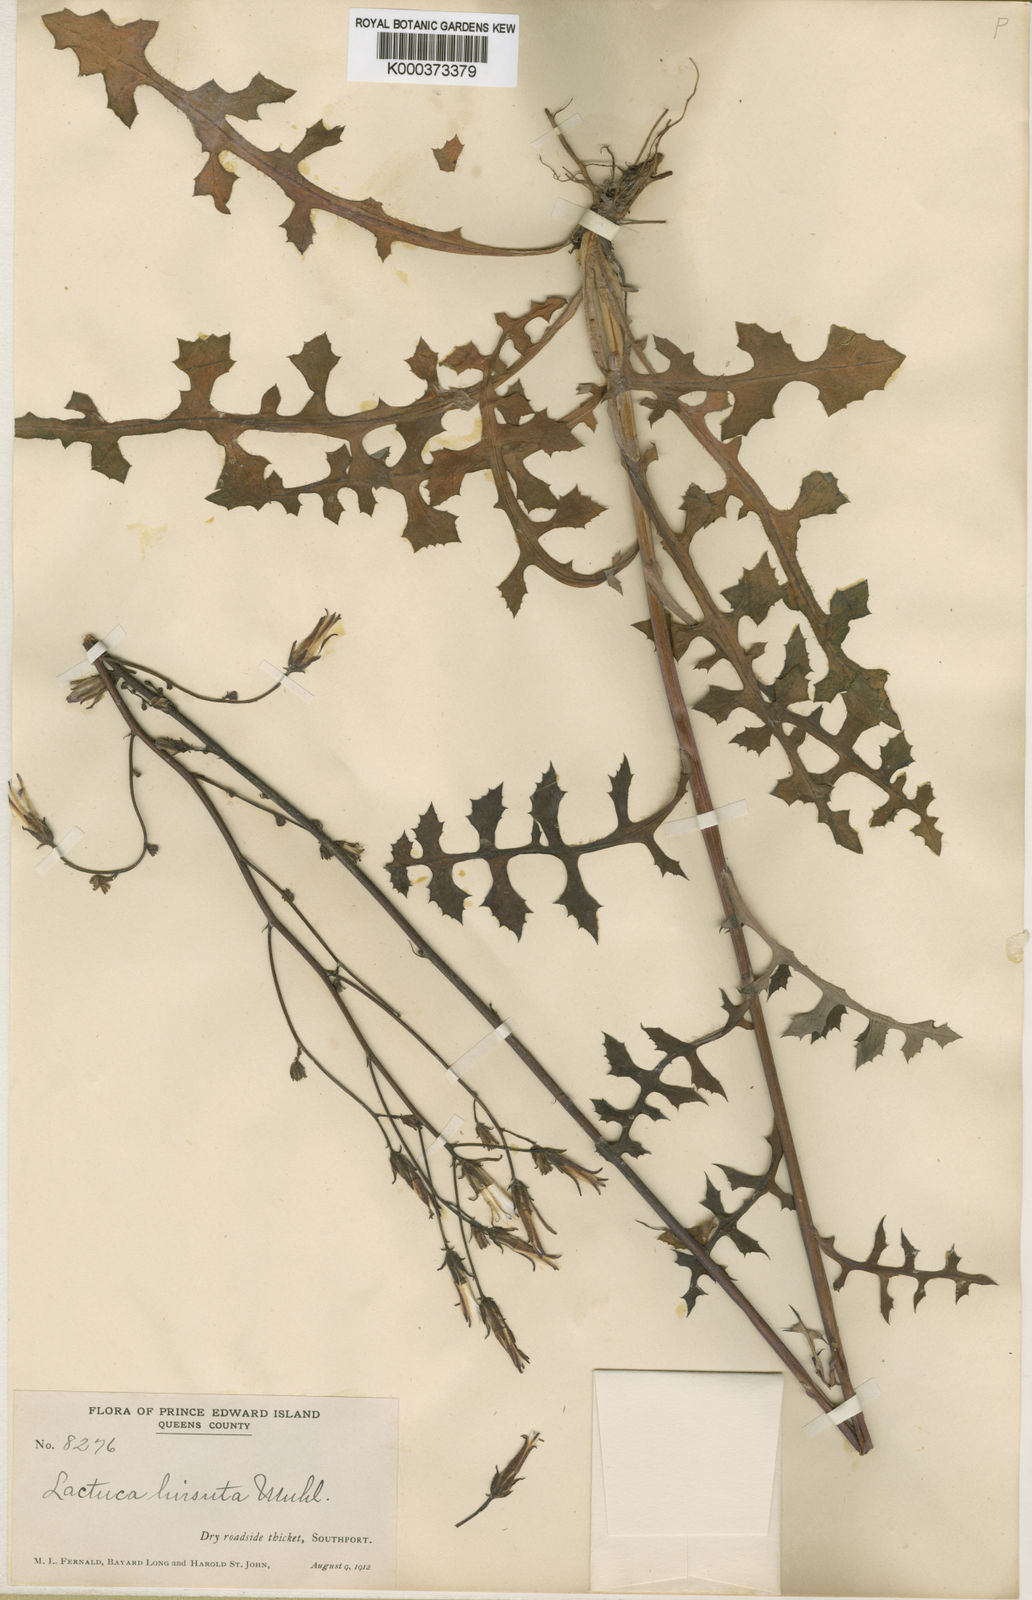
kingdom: Plantae
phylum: Tracheophyta
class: Magnoliopsida
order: Asterales
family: Asteraceae
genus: Lactuca
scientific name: Lactuca hirsuta
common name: Hairy lettuce
